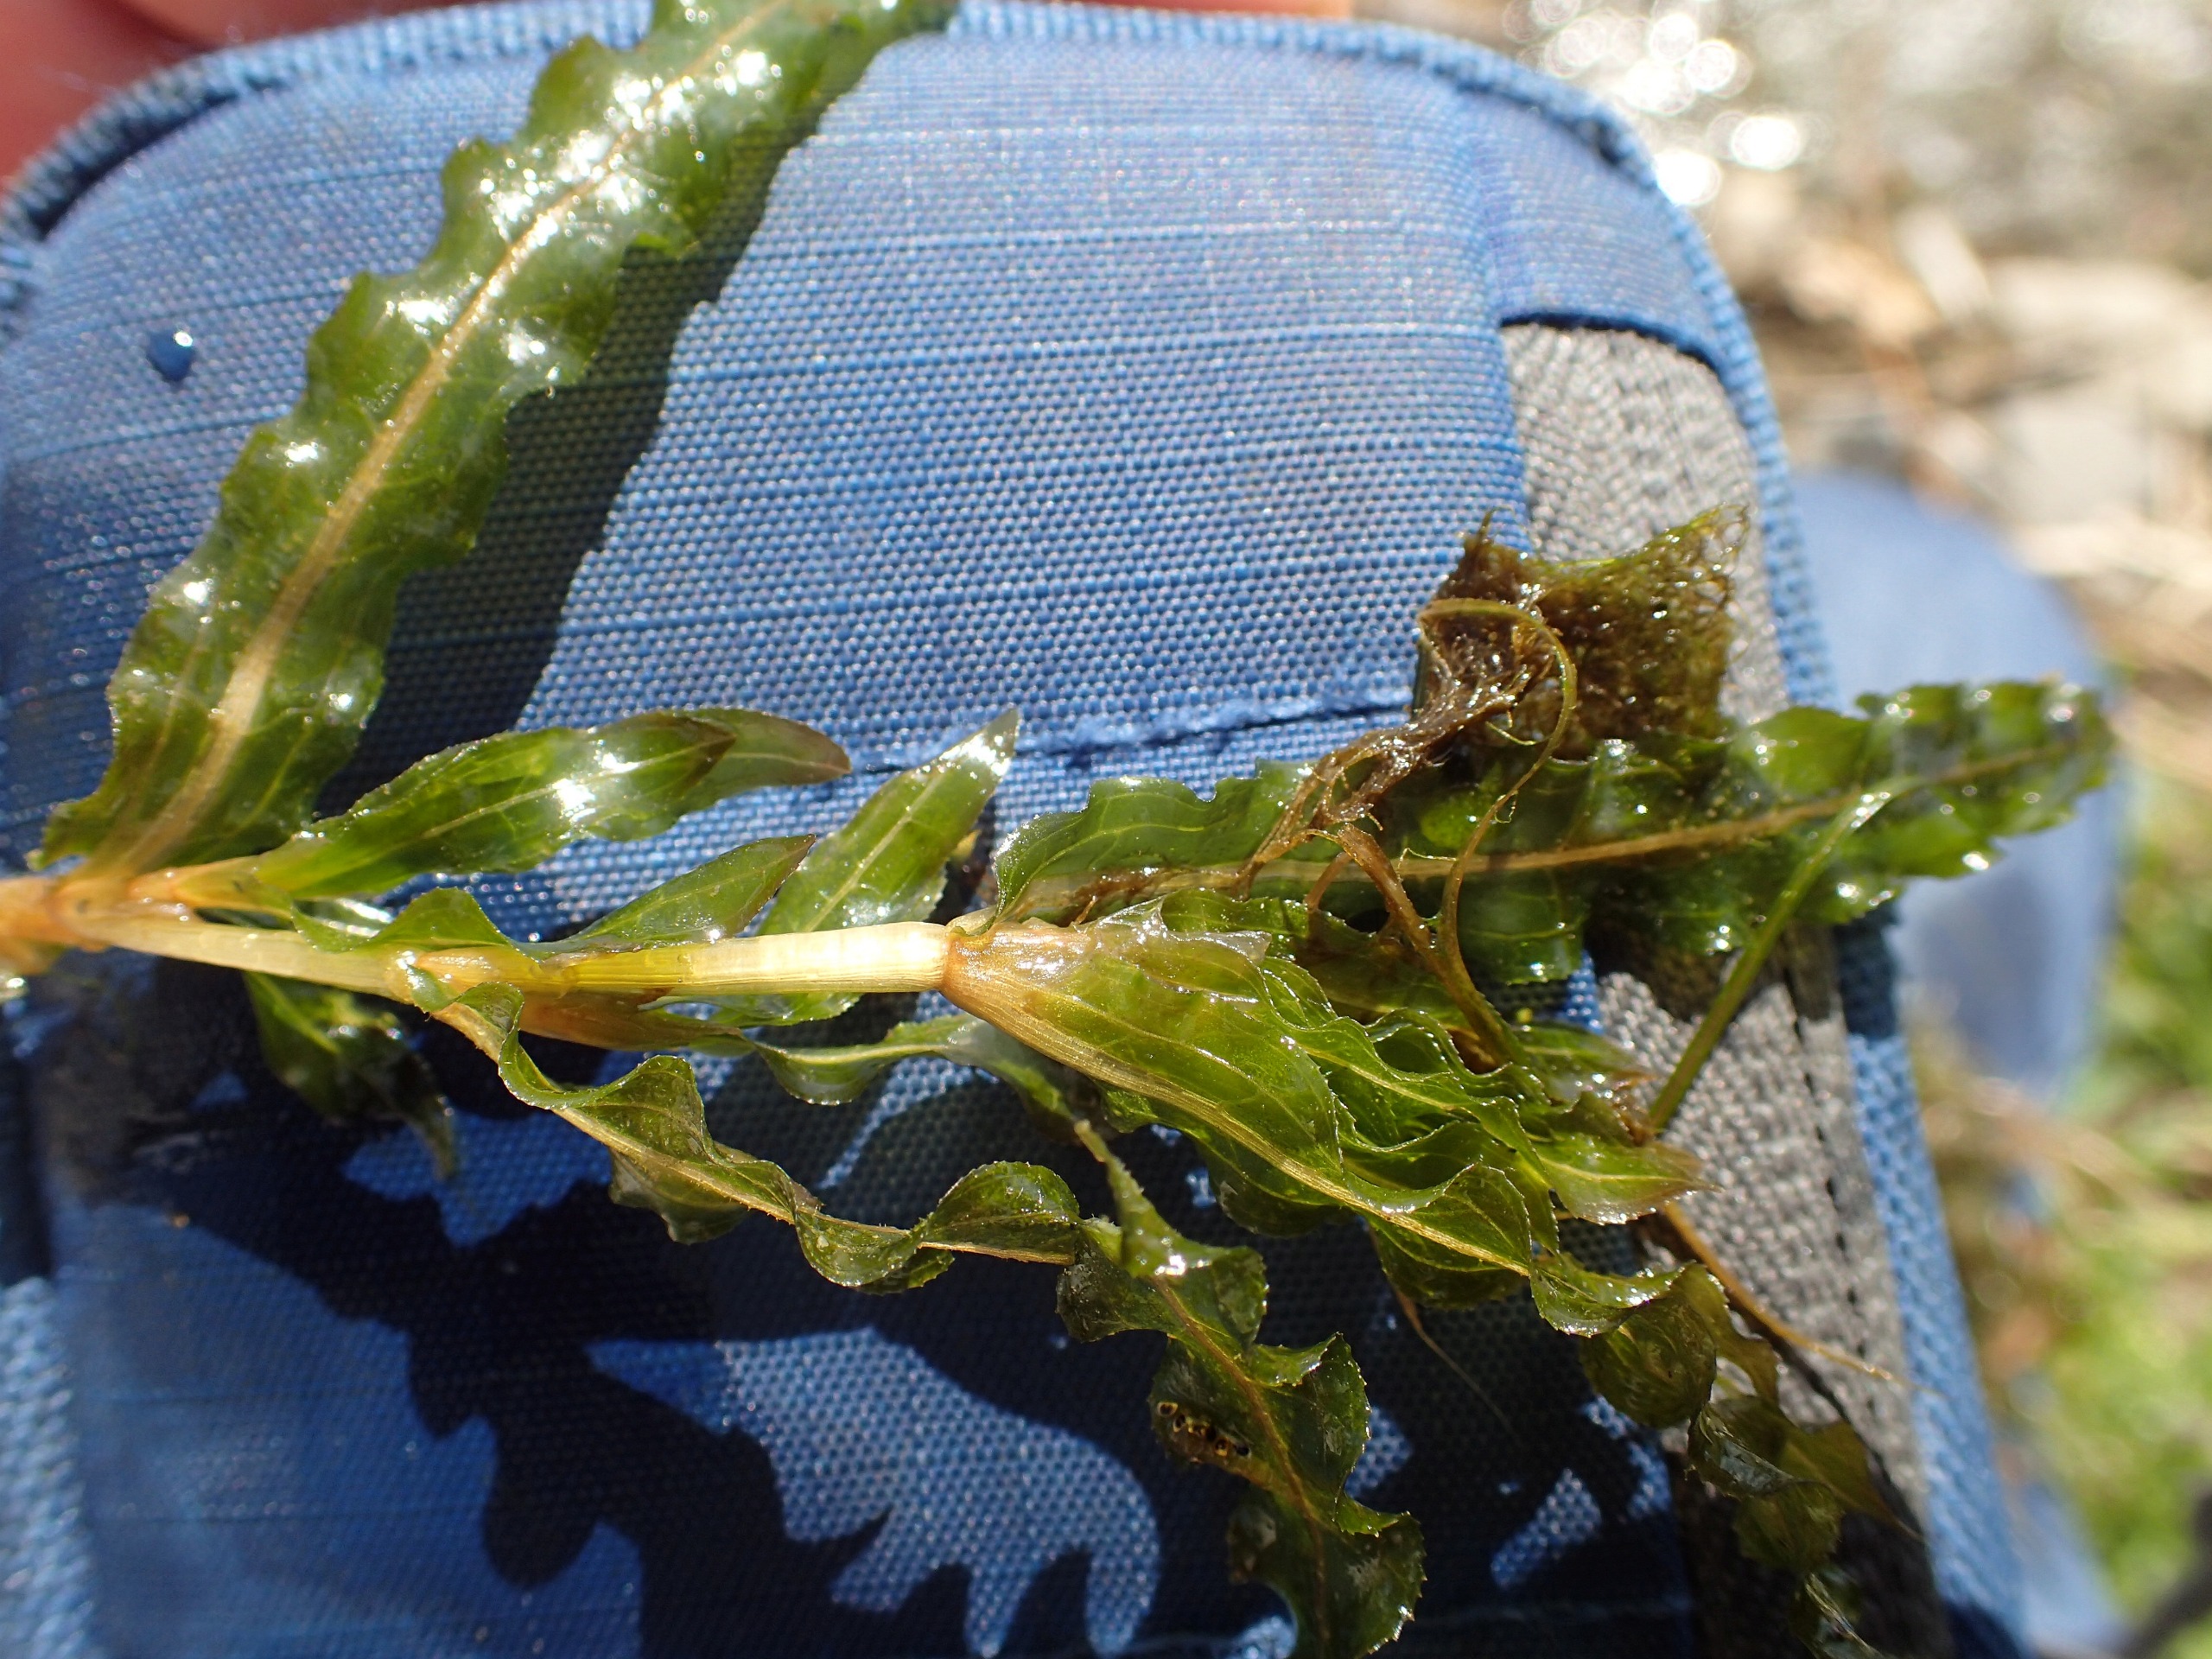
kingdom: Plantae
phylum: Tracheophyta
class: Liliopsida
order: Alismatales
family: Potamogetonaceae
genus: Potamogeton
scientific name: Potamogeton crispus
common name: Kruset vandaks
